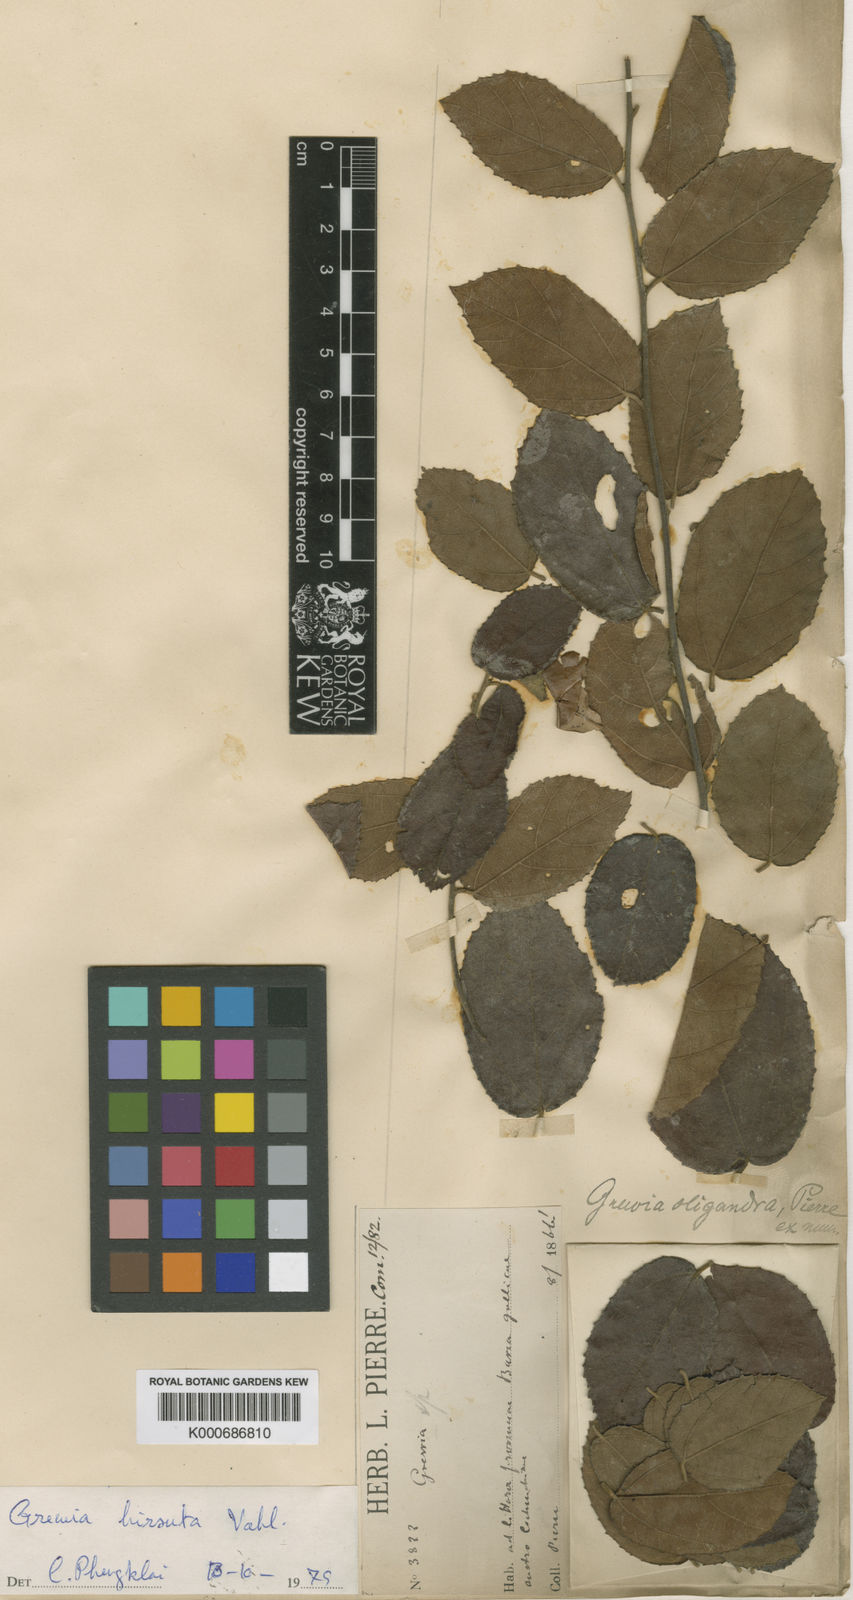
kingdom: Plantae
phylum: Tracheophyta
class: Magnoliopsida
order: Malvales
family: Malvaceae
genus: Grewia
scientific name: Grewia hirsuta
